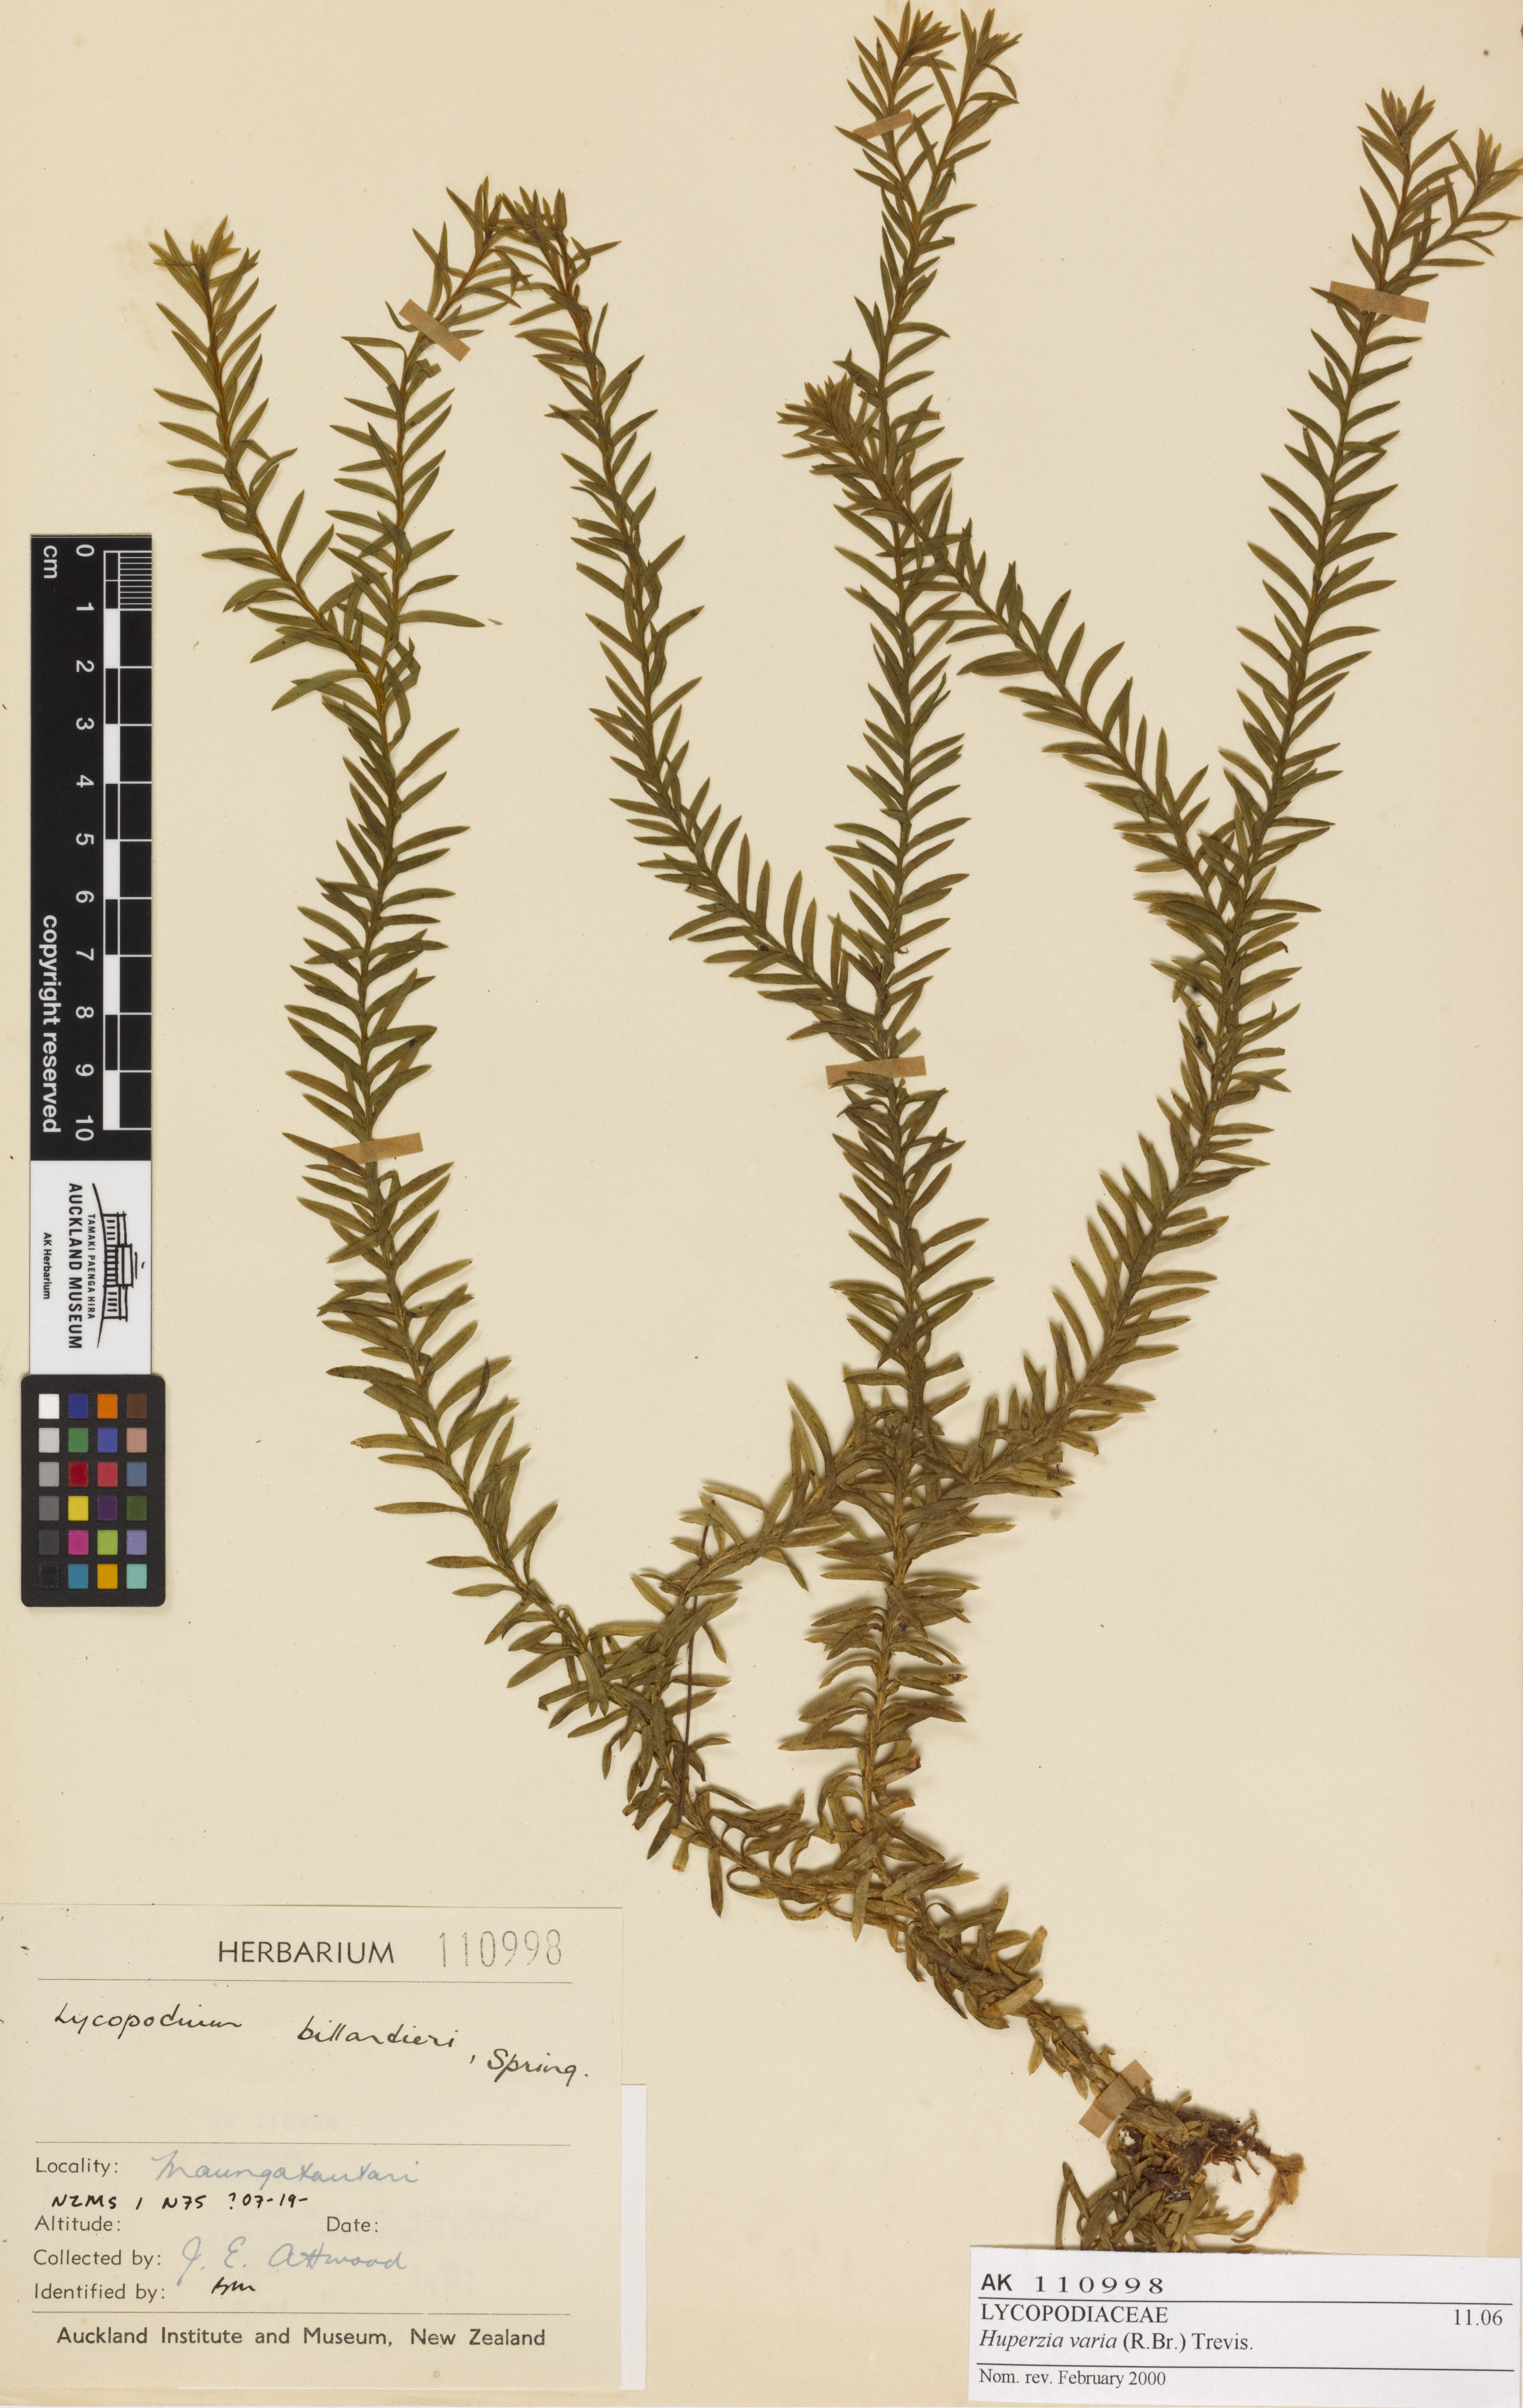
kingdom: Plantae
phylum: Tracheophyta
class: Lycopodiopsida
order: Lycopodiales
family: Lycopodiaceae
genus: Phlegmariurus
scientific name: Phlegmariurus
